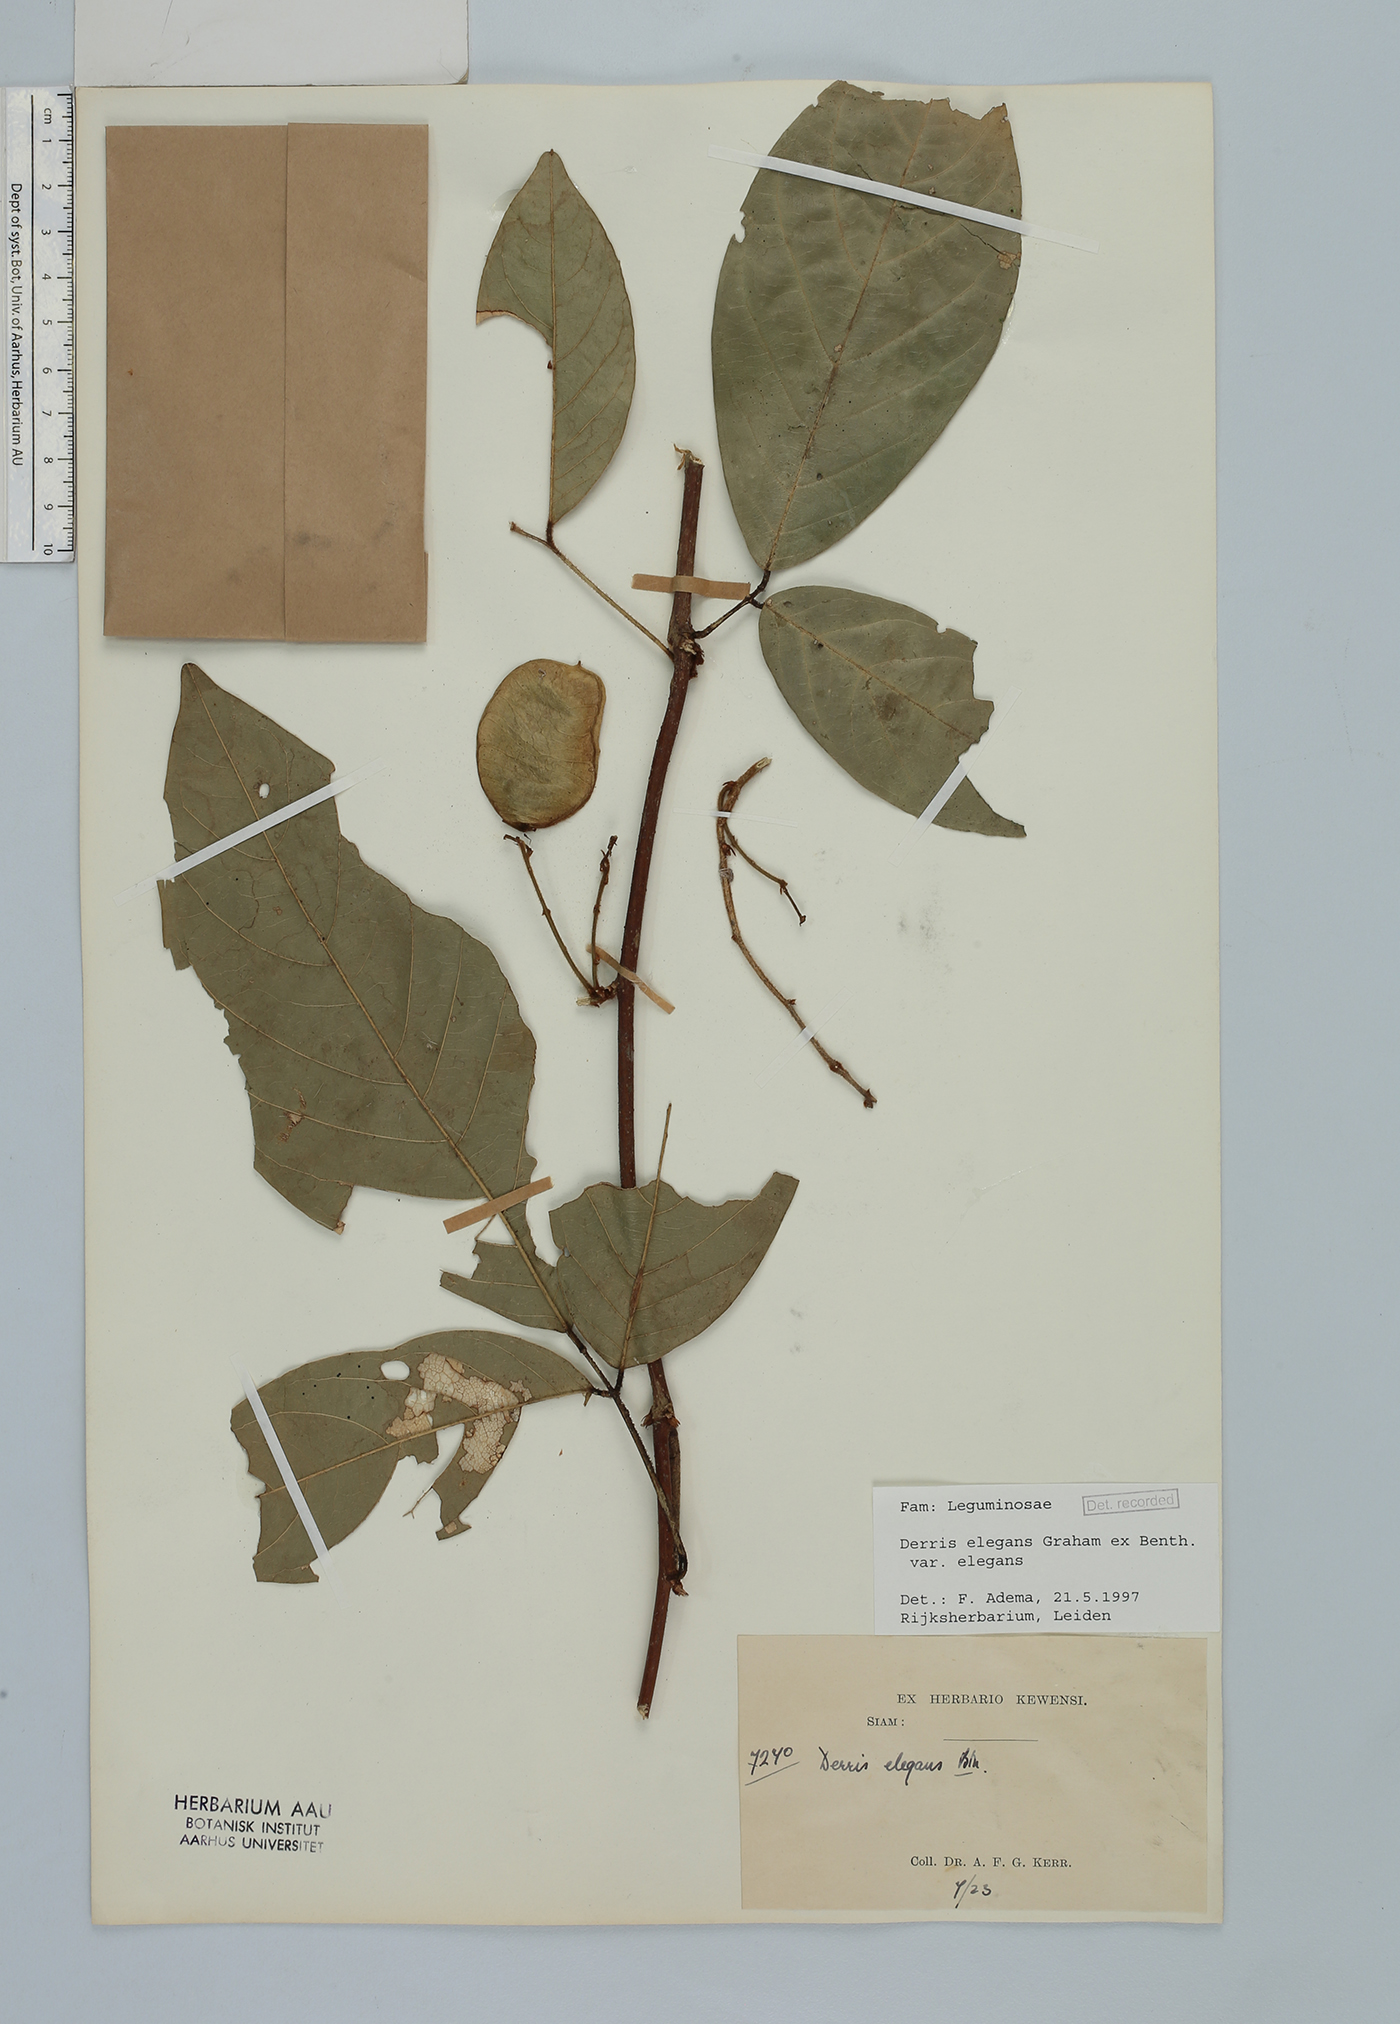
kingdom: Plantae
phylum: Tracheophyta
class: Magnoliopsida
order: Fabales
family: Fabaceae
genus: Derris
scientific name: Derris elegans
